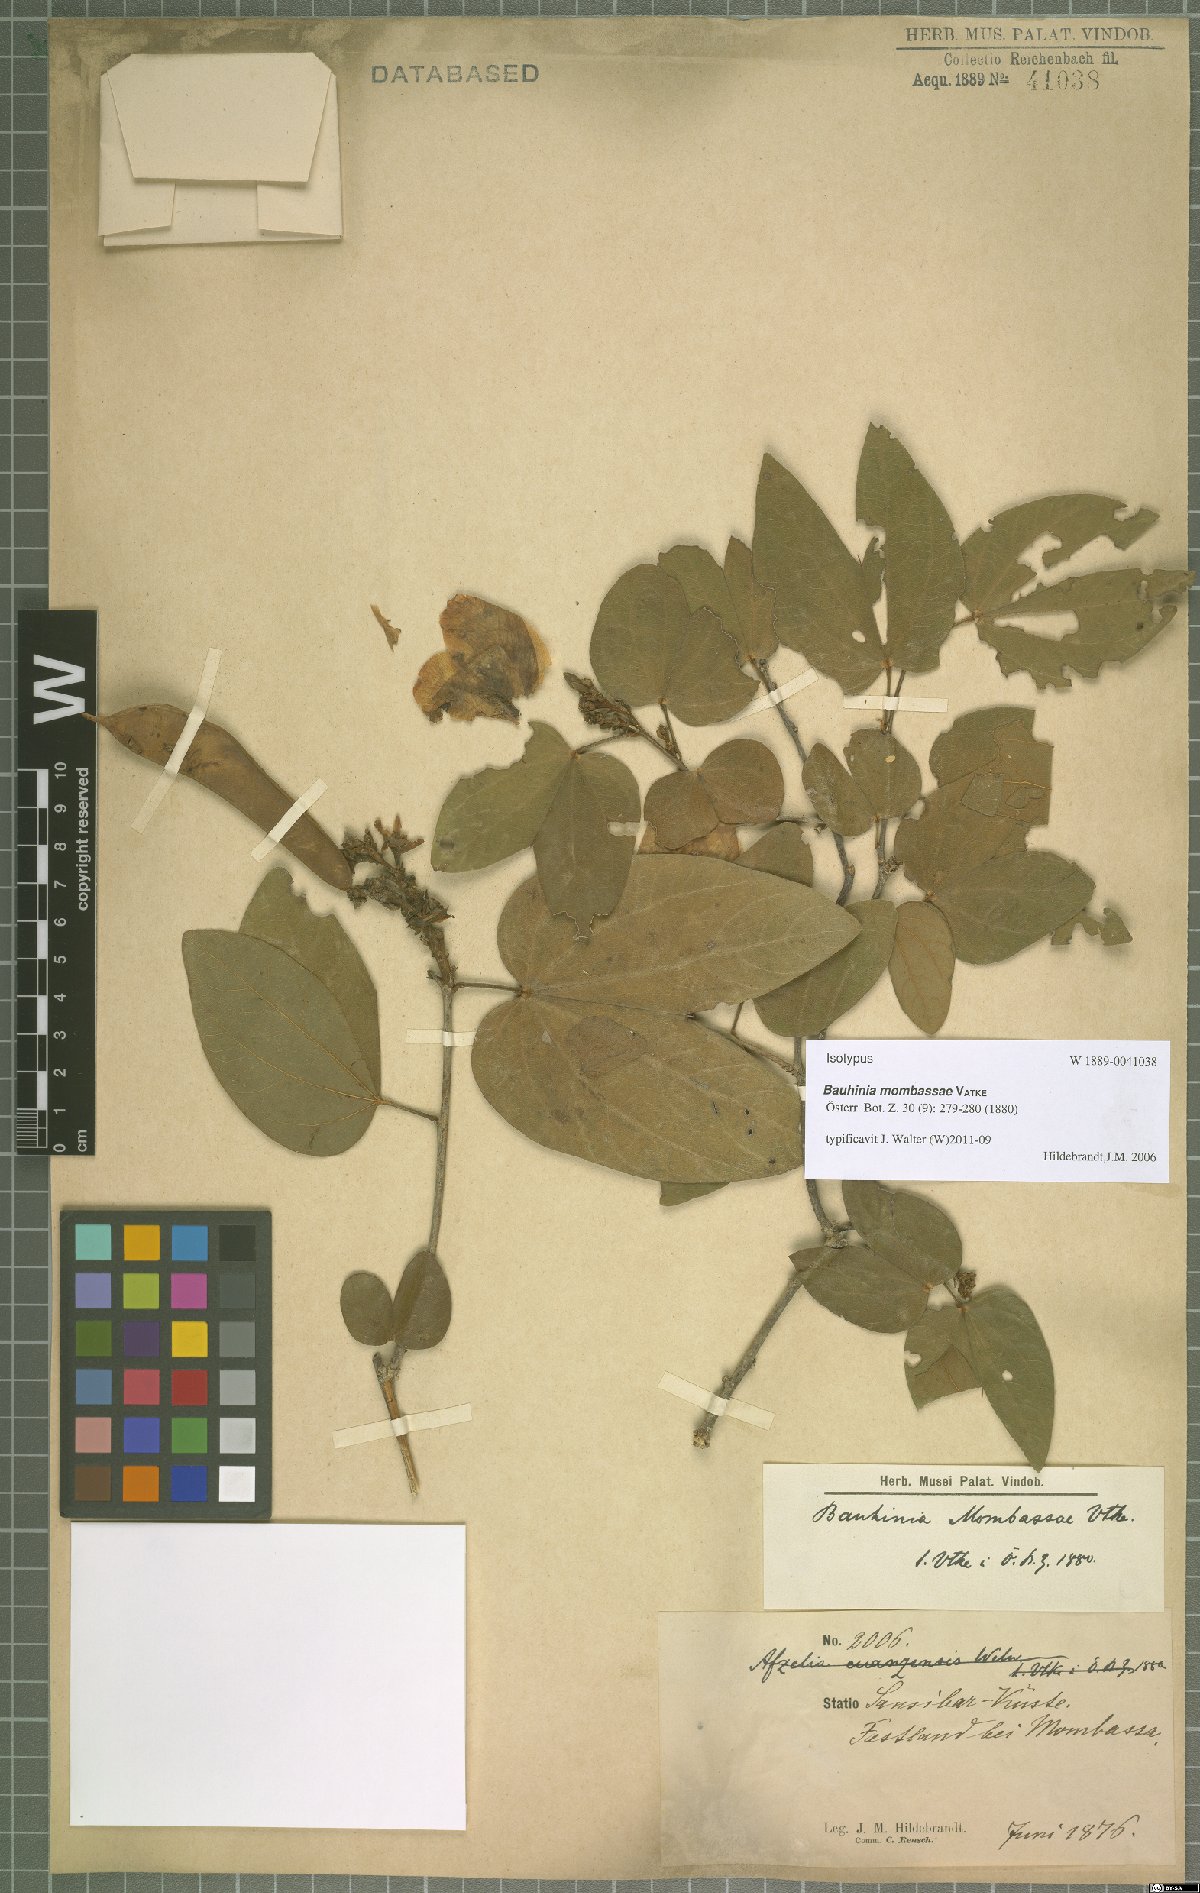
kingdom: Plantae
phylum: Tracheophyta
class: Magnoliopsida
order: Fabales
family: Fabaceae
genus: Bauhinia
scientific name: Bauhinia mombassae
